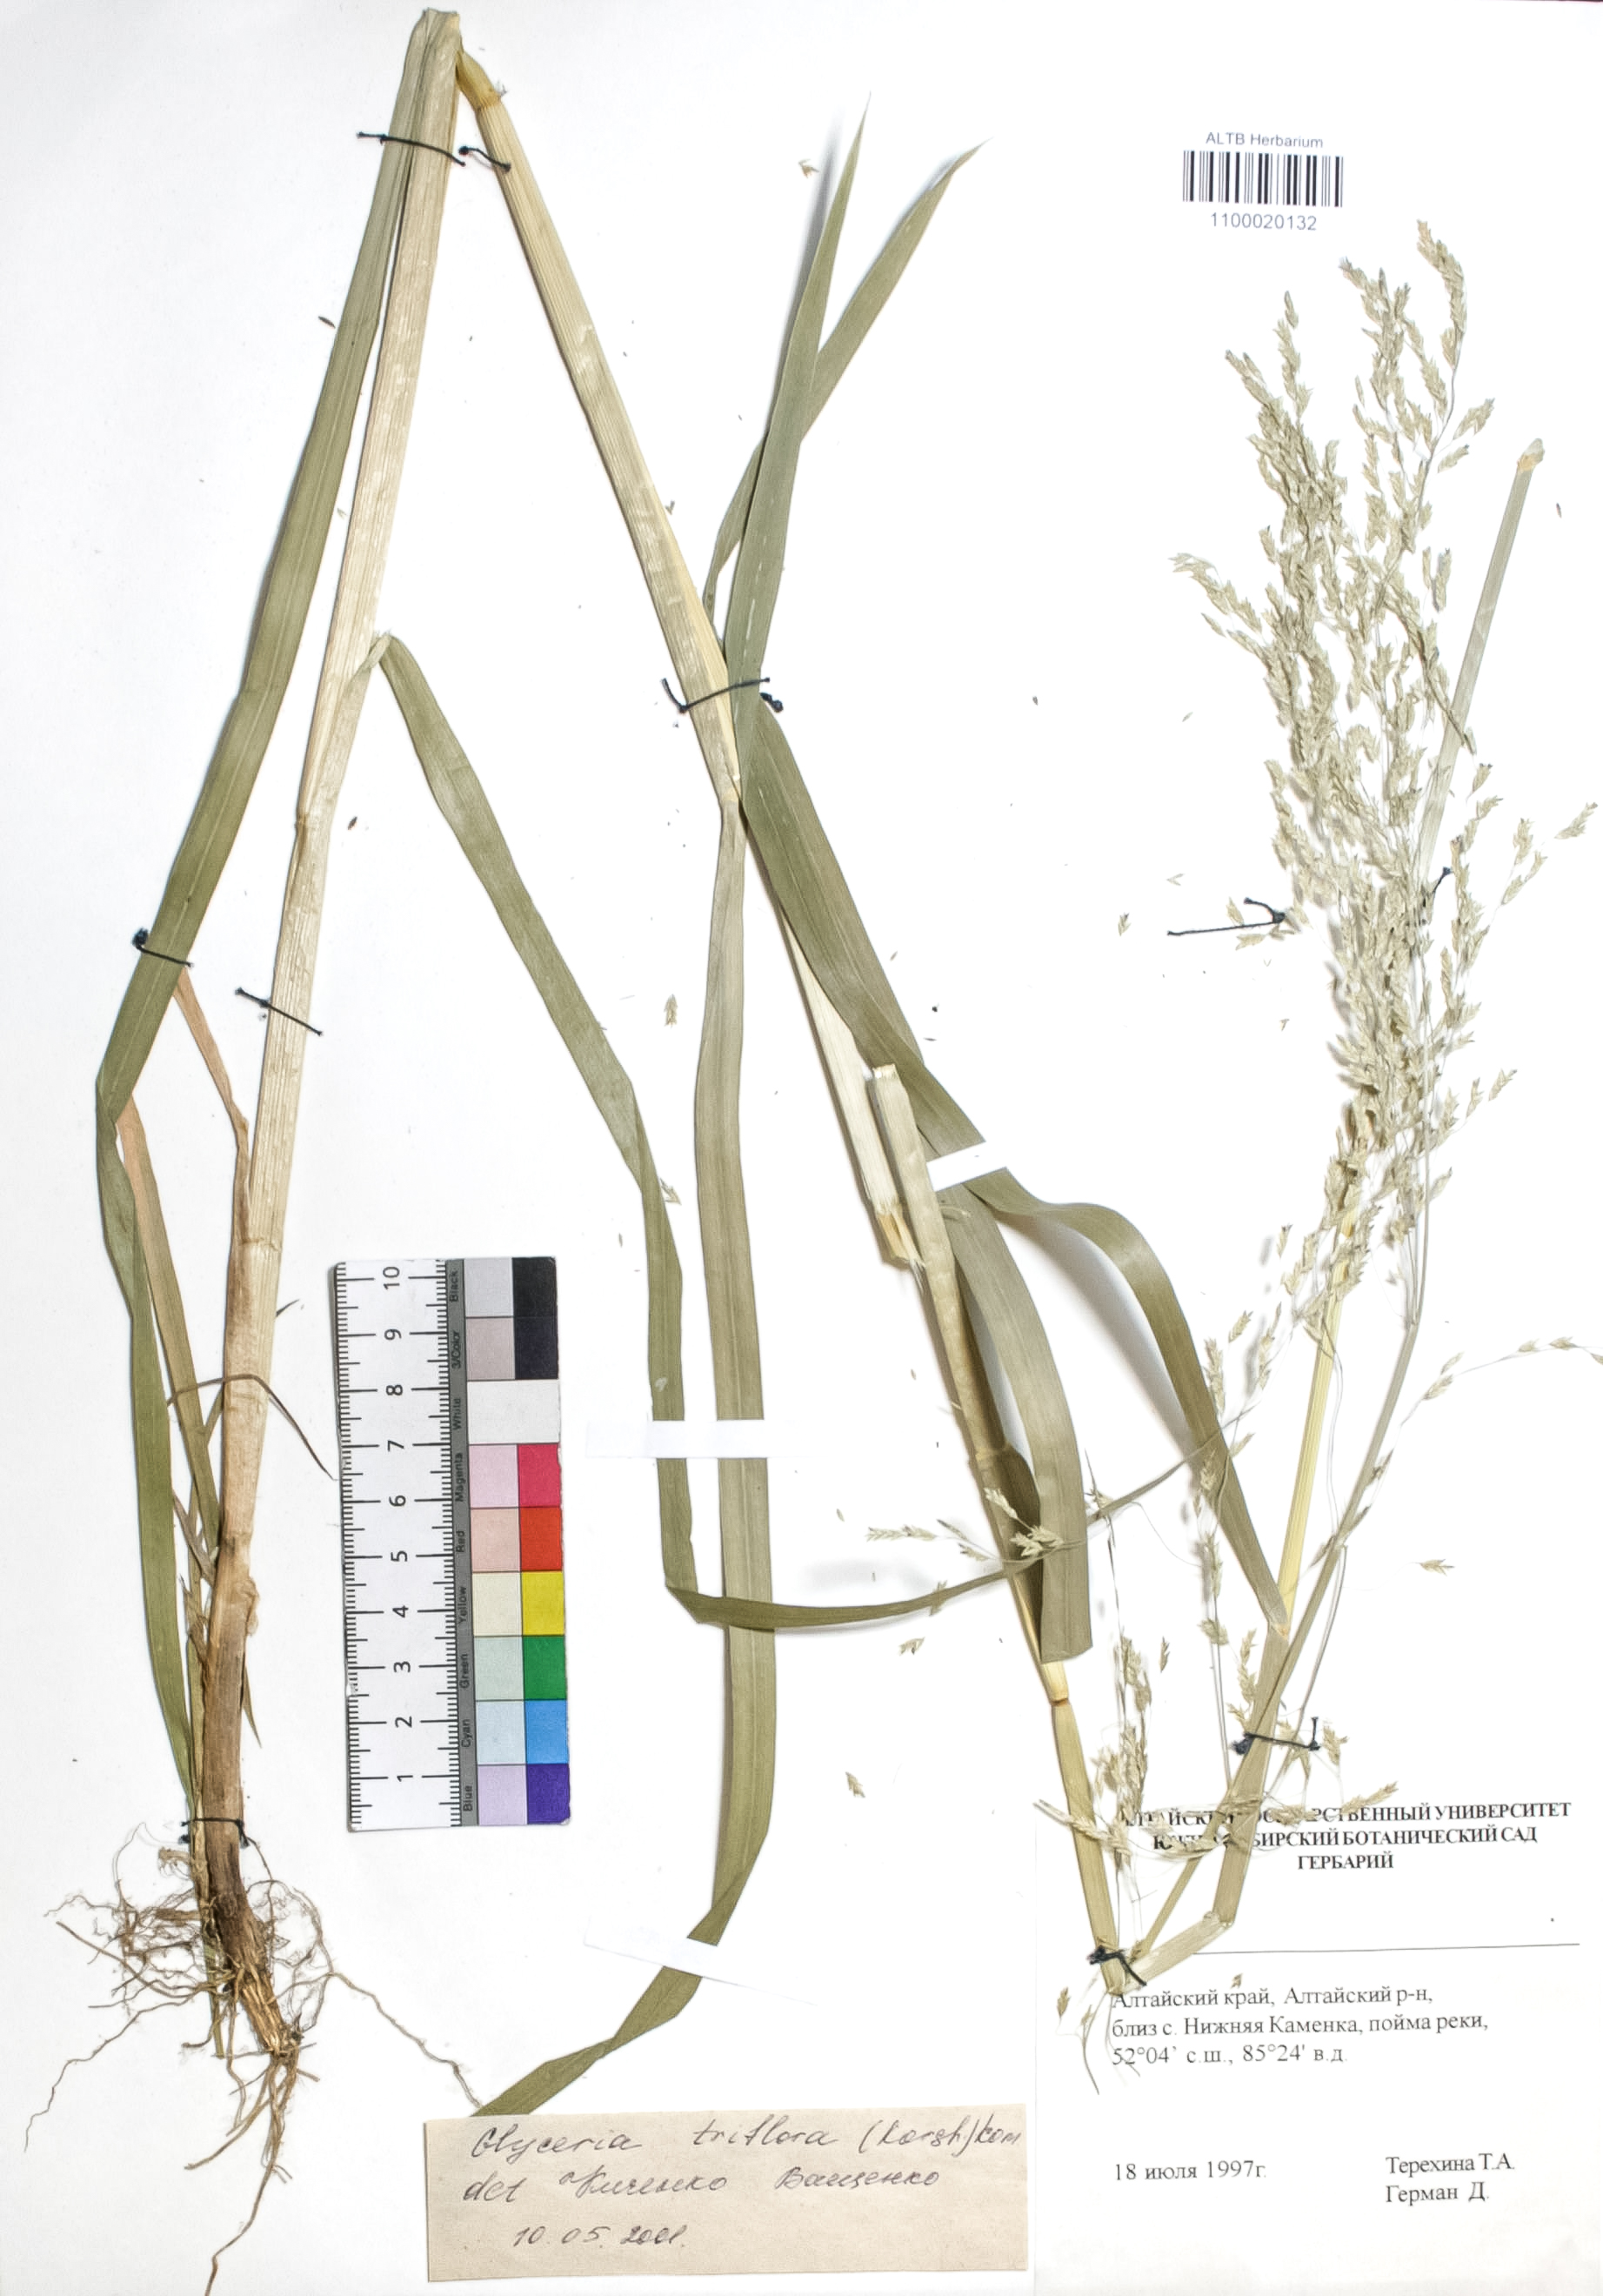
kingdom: Plantae
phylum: Tracheophyta
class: Liliopsida
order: Poales
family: Poaceae
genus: Glyceria
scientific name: Glyceria lithuanica
